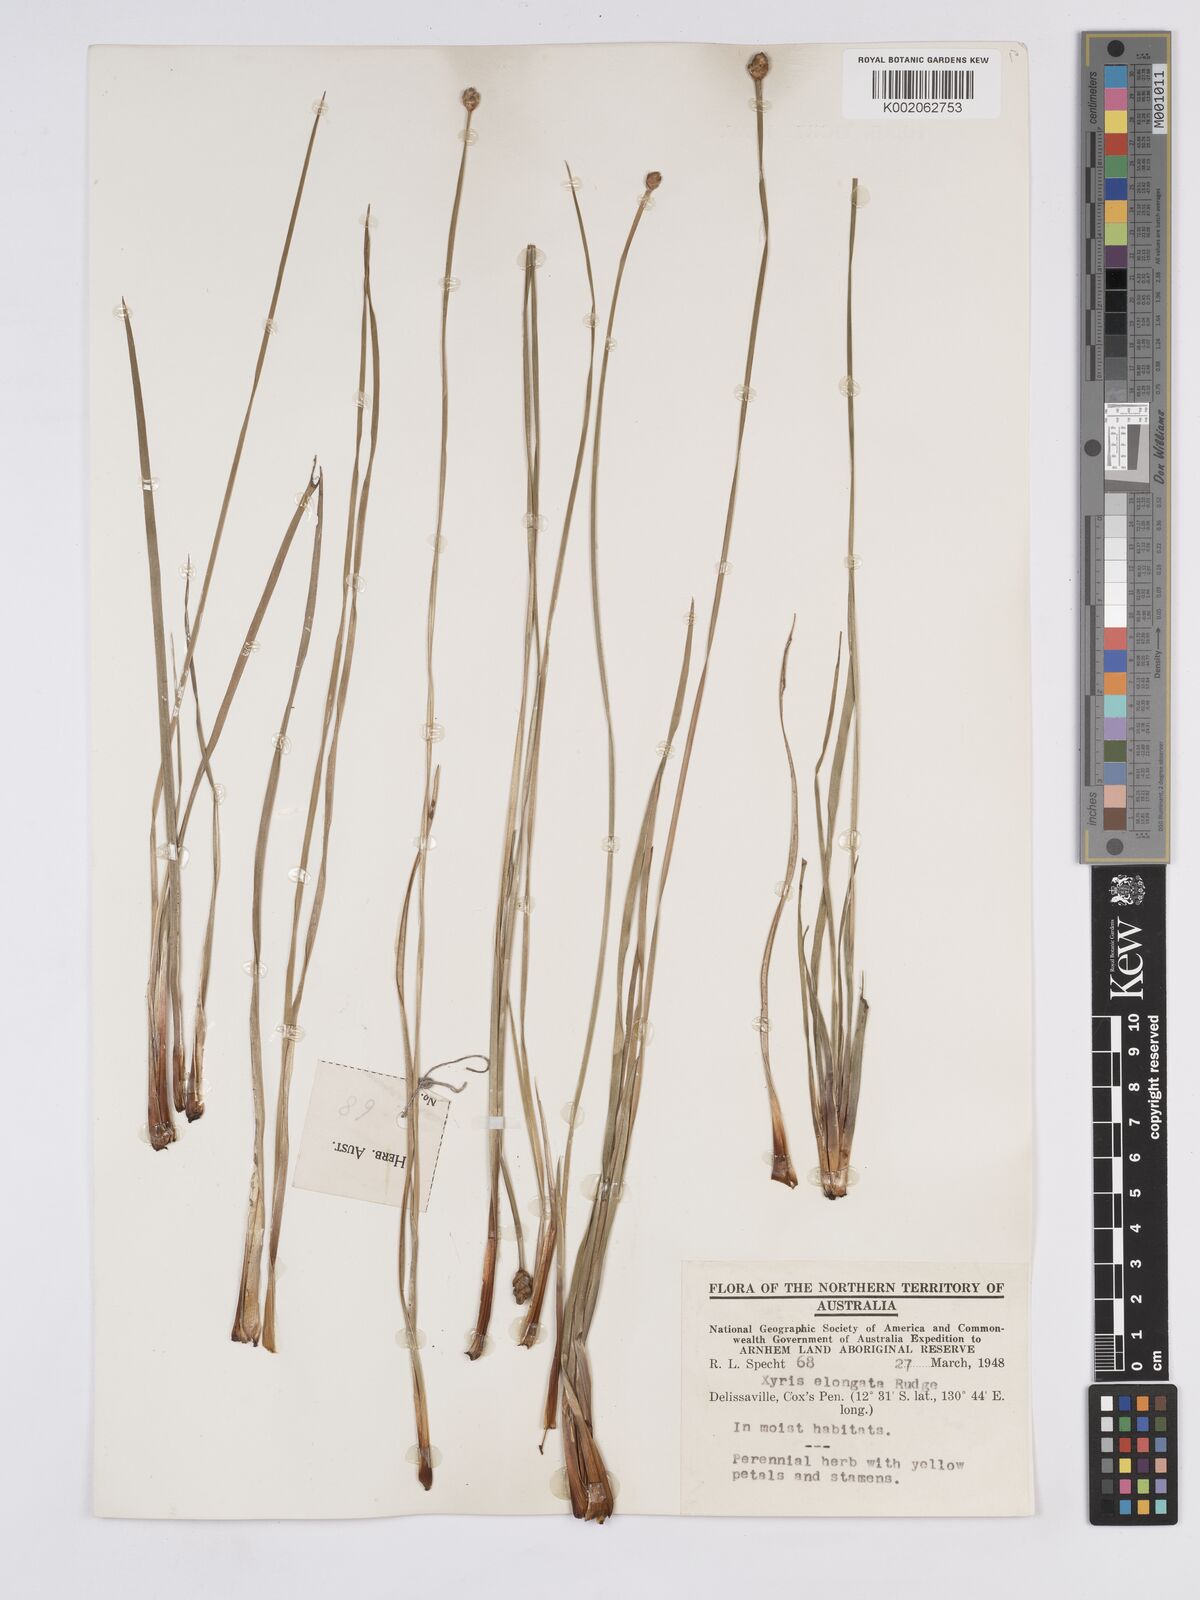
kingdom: Plantae
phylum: Tracheophyta
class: Liliopsida
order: Poales
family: Xyridaceae
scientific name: Xyridaceae
